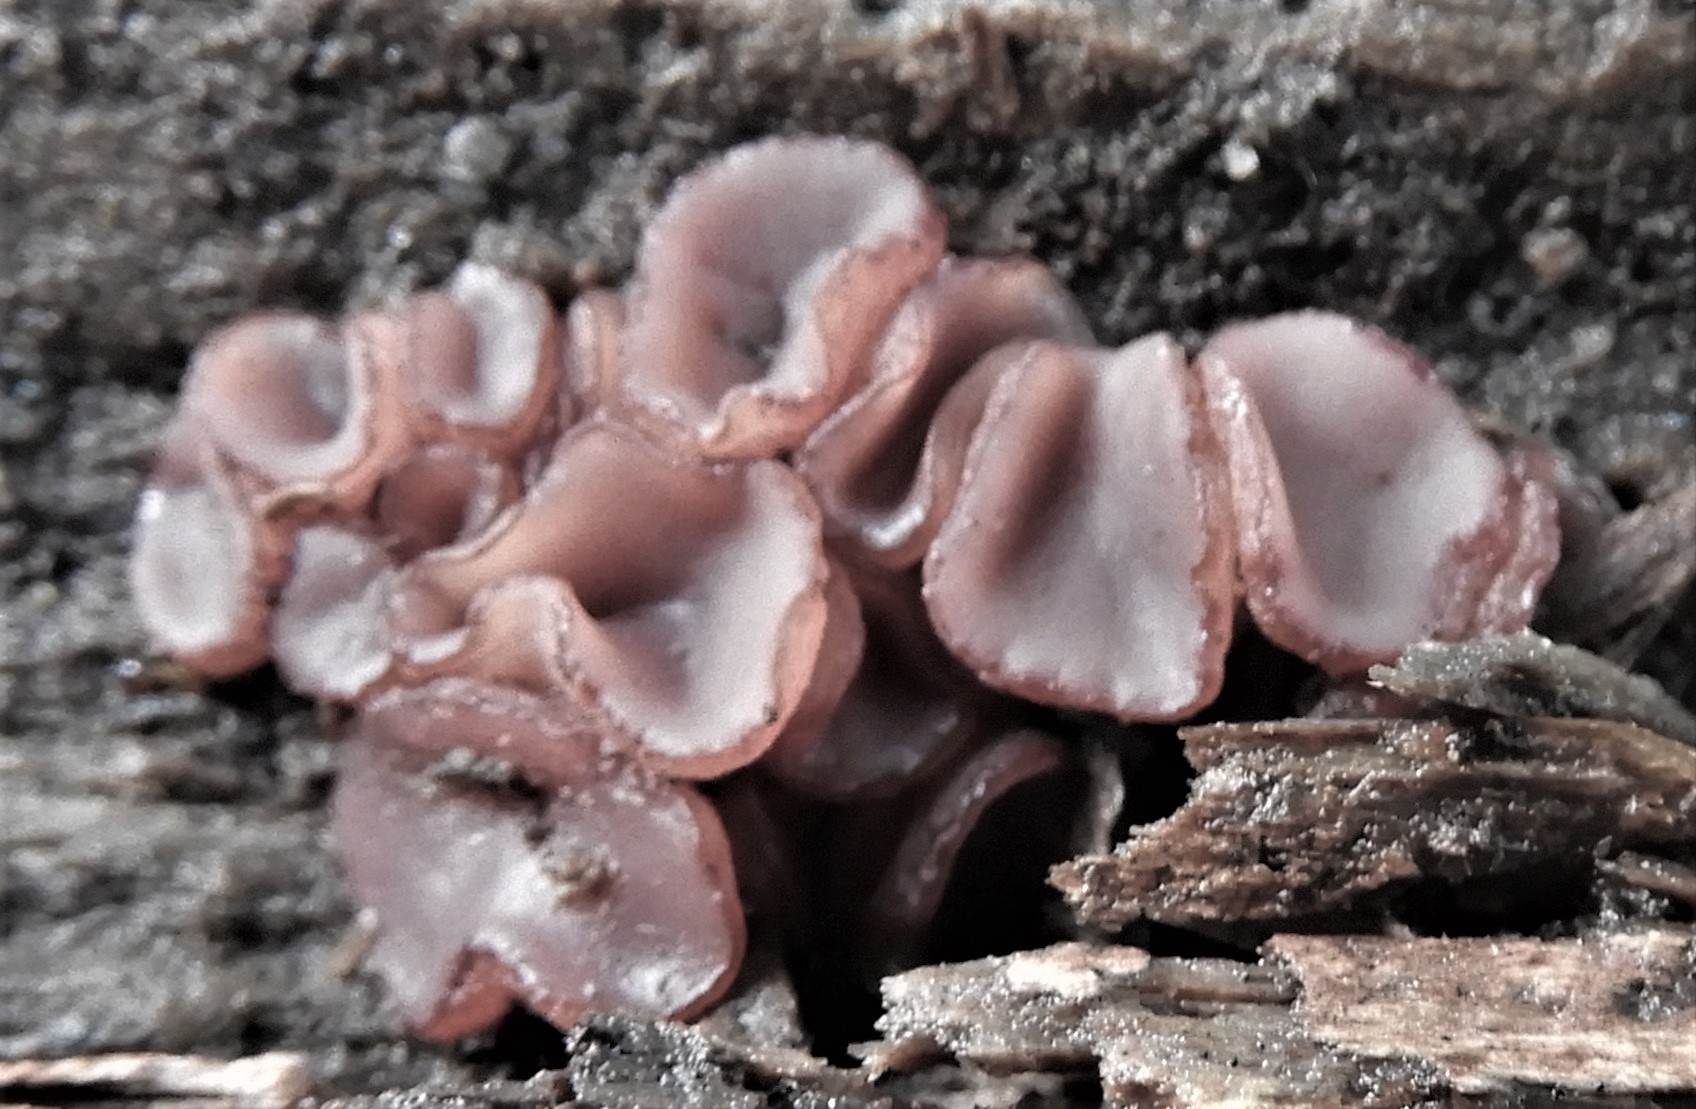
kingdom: Fungi
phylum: Ascomycota
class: Leotiomycetes
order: Helotiales
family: Gelatinodiscaceae
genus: Neobulgaria
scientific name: Neobulgaria pura
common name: bleg bævreskive
